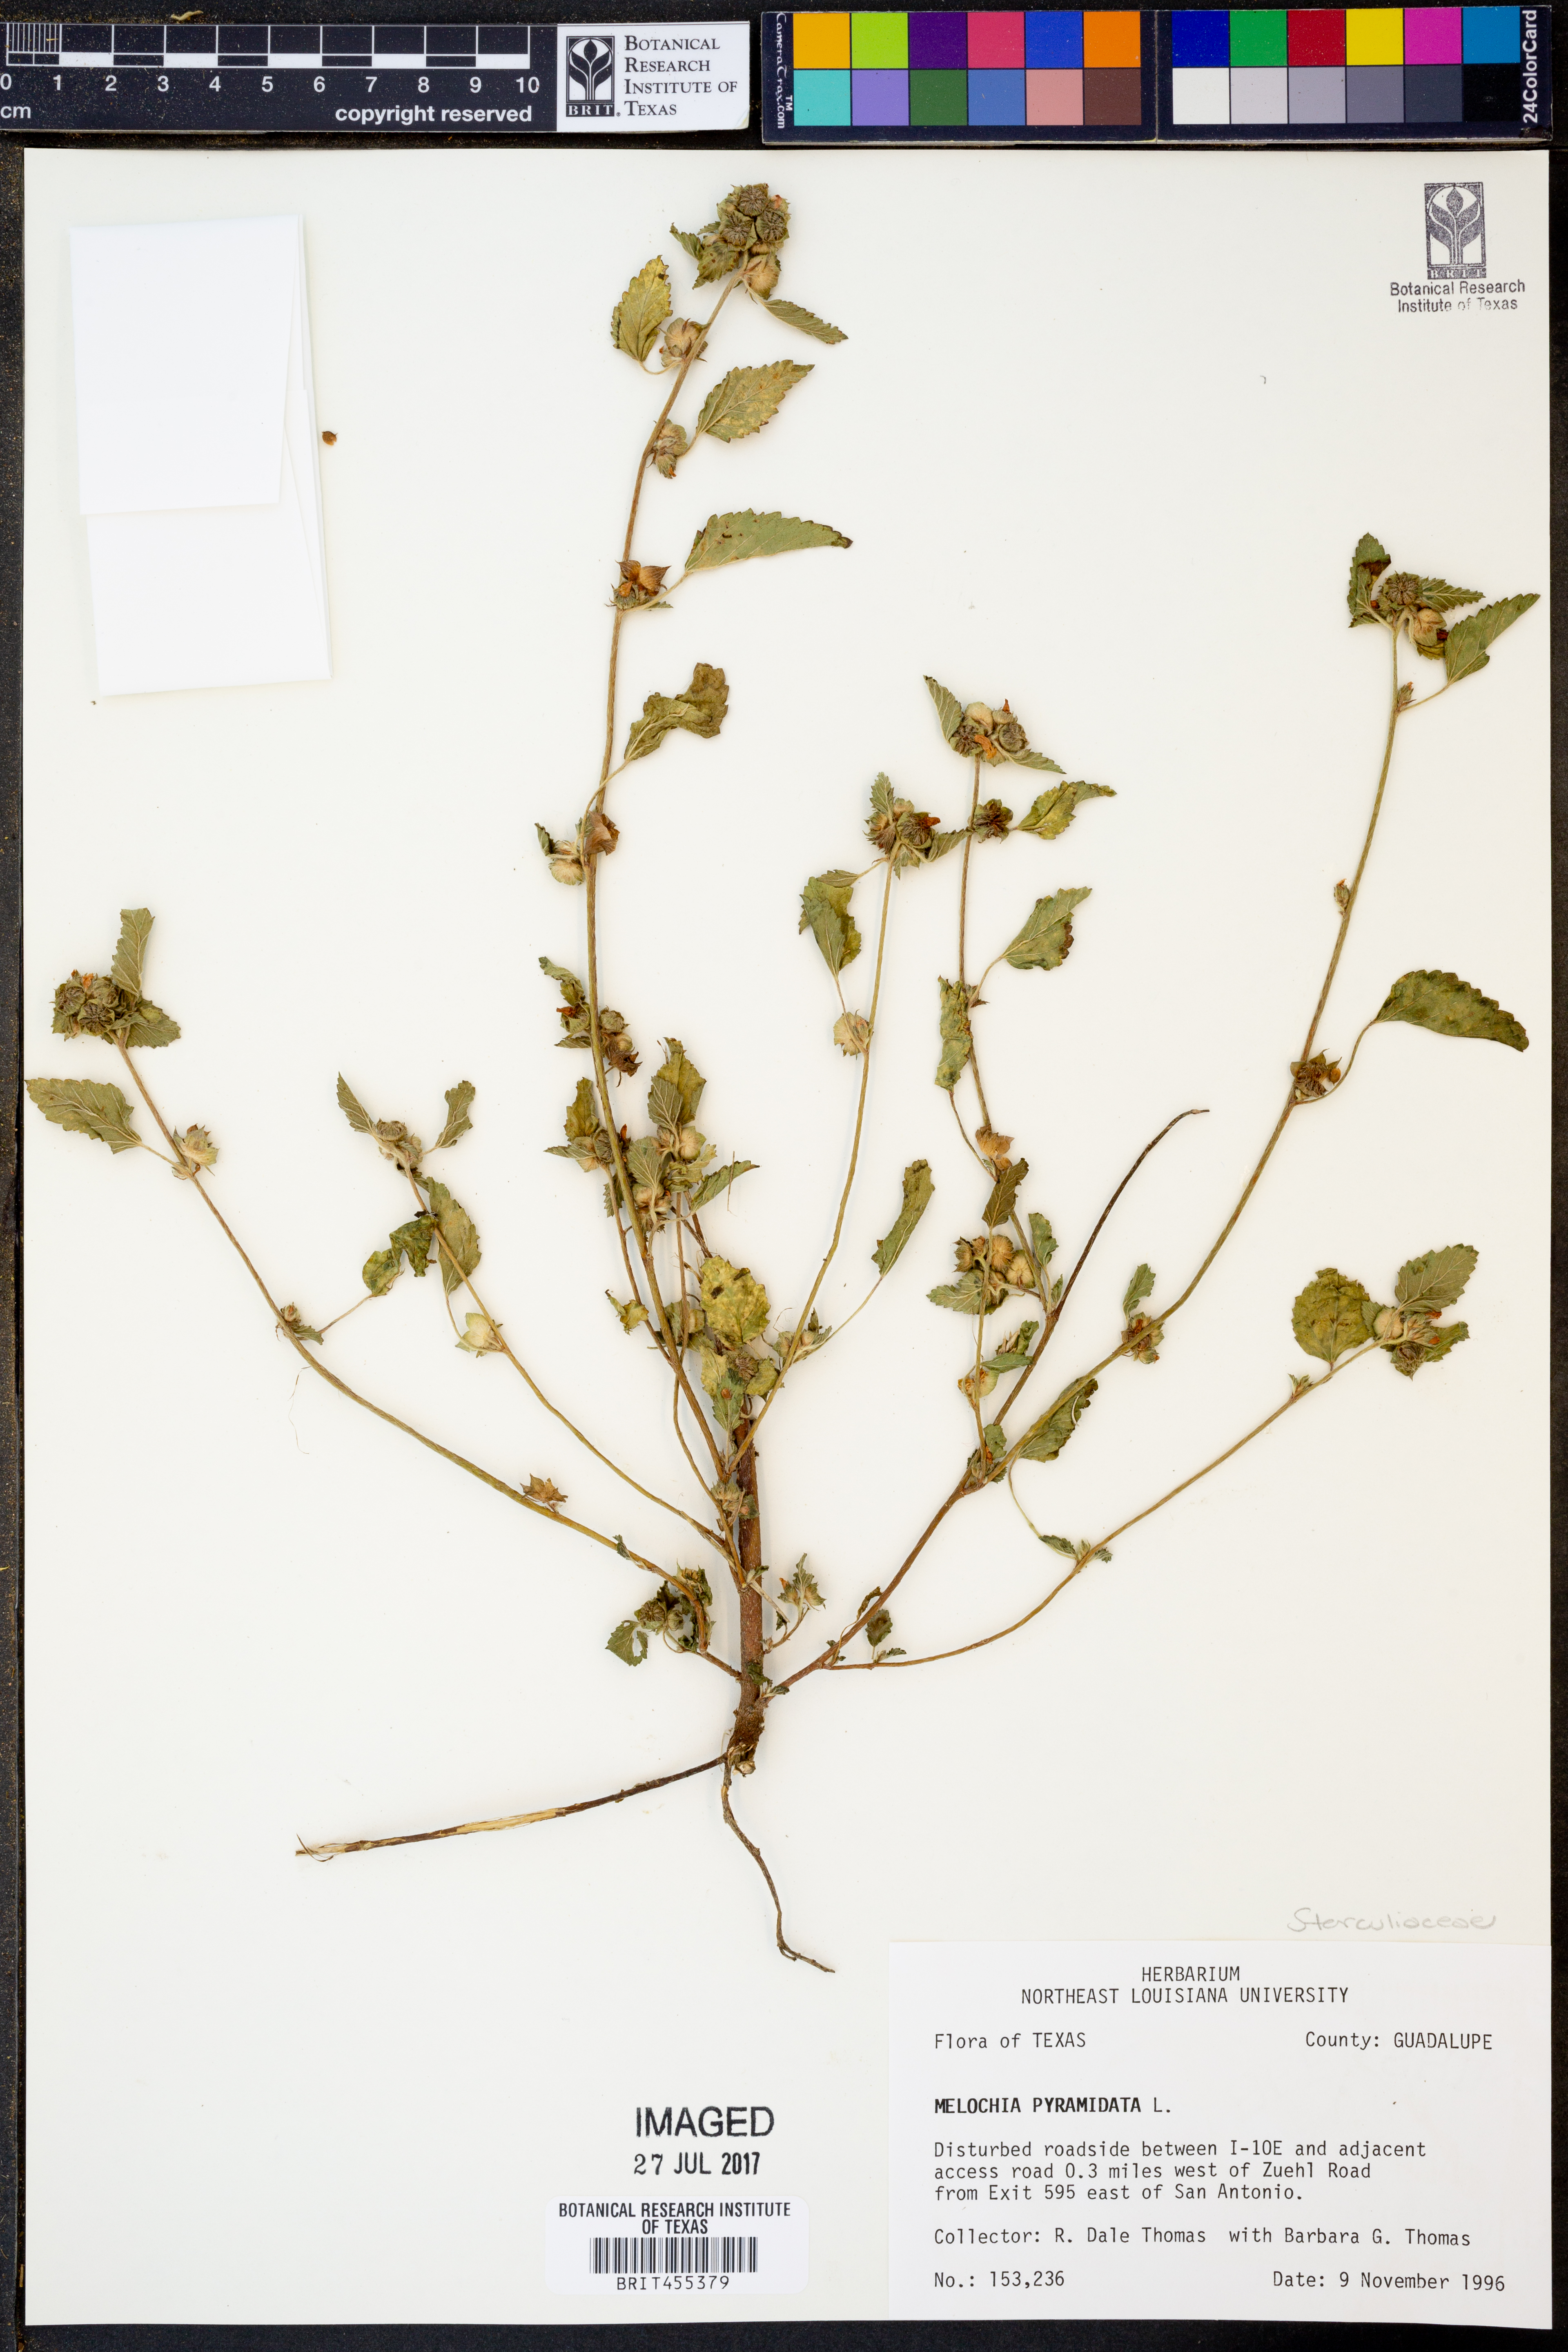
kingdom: Plantae
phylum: Tracheophyta
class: Magnoliopsida
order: Malvales
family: Malvaceae
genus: Melochia
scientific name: Melochia pyramidata
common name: Pyramidflower
